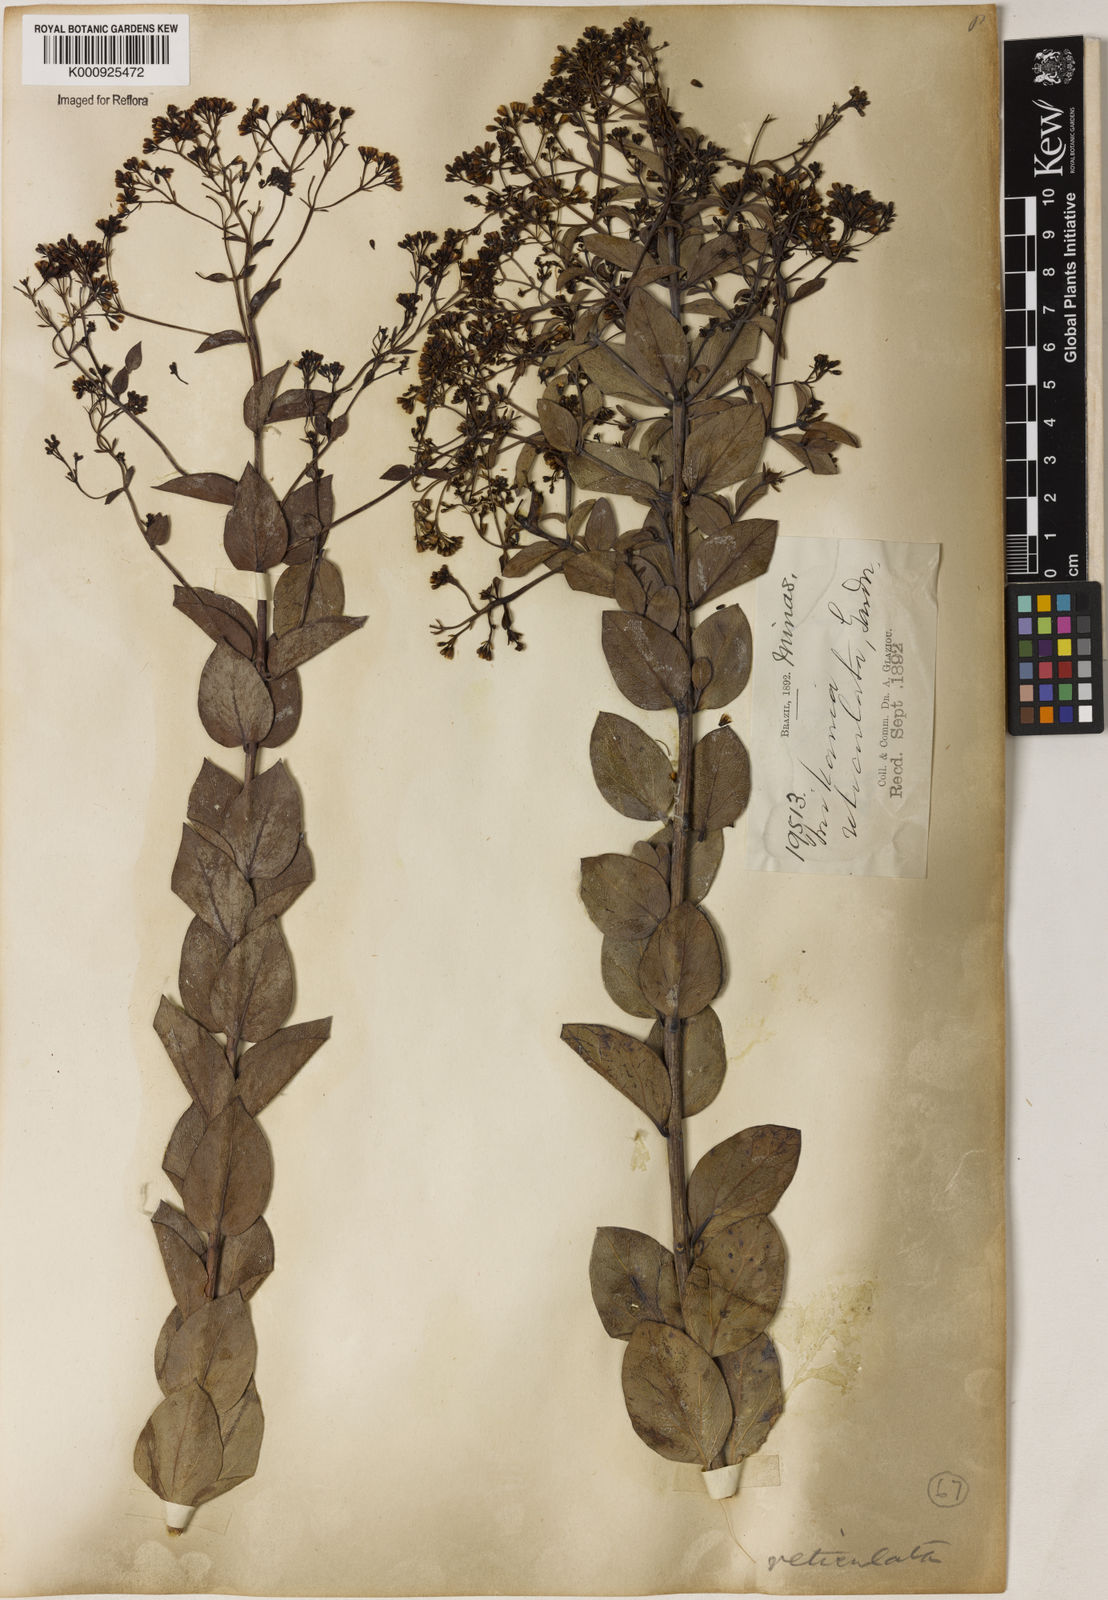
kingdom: Plantae
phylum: Tracheophyta
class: Magnoliopsida
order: Asterales
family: Asteraceae
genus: Mikania
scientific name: Mikania
